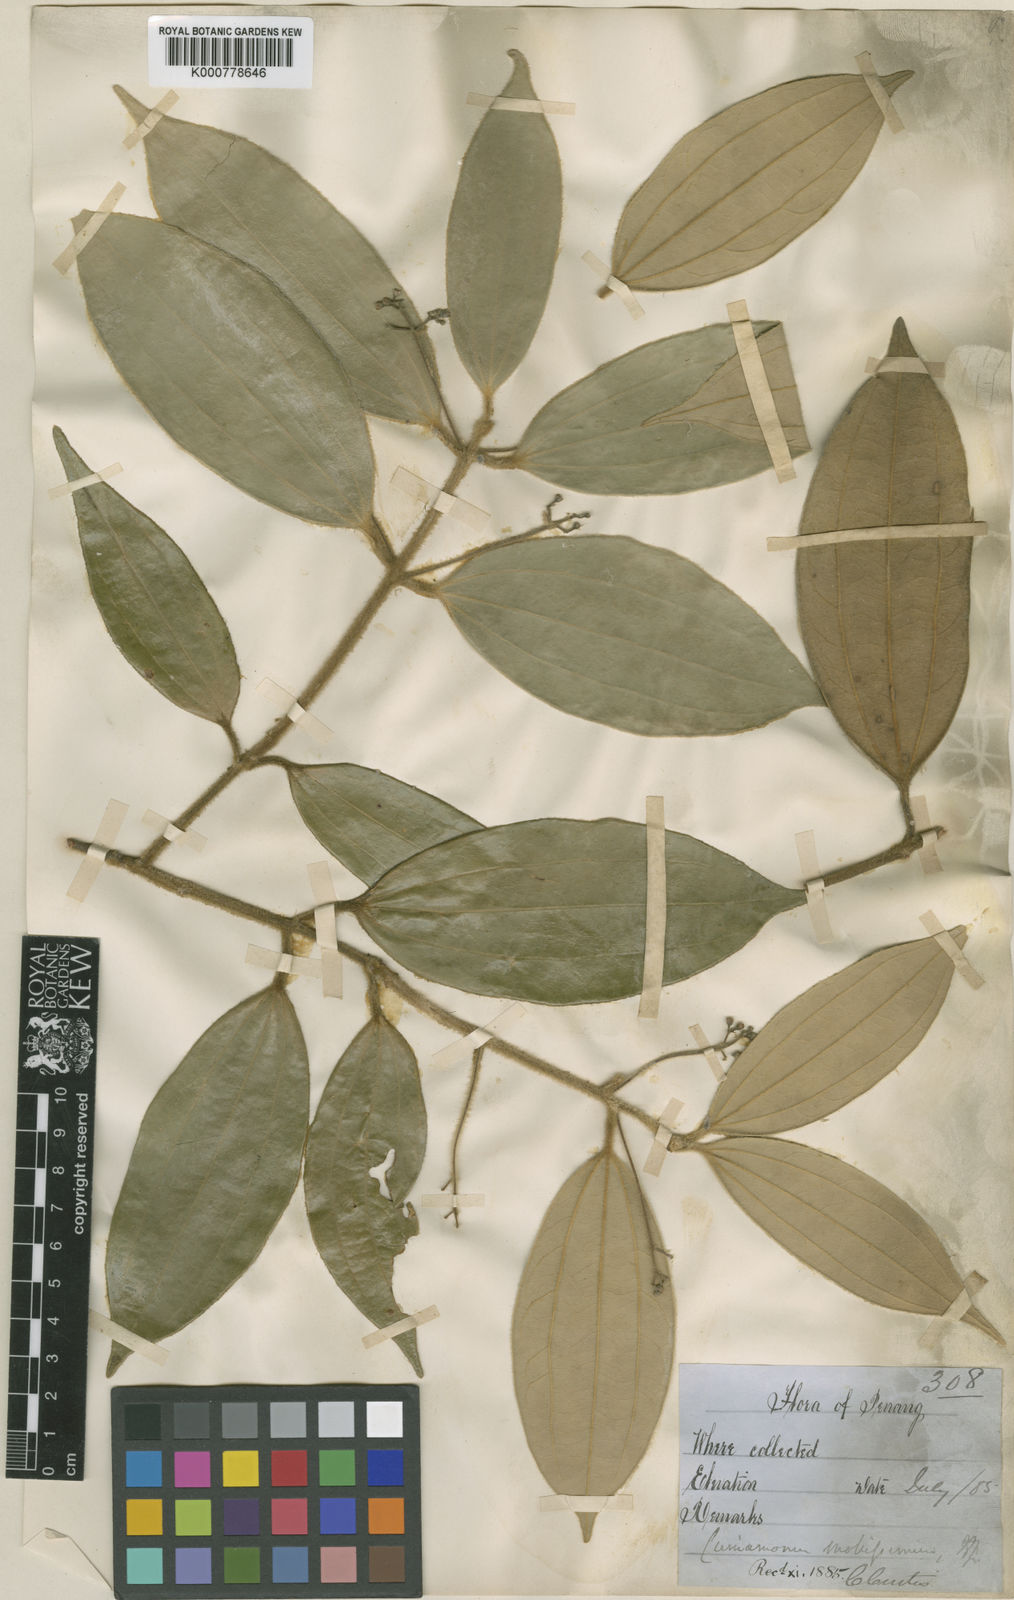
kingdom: Plantae
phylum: Tracheophyta
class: Magnoliopsida
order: Laurales
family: Lauraceae
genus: Cinnamomum
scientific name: Cinnamomum mollissimum
